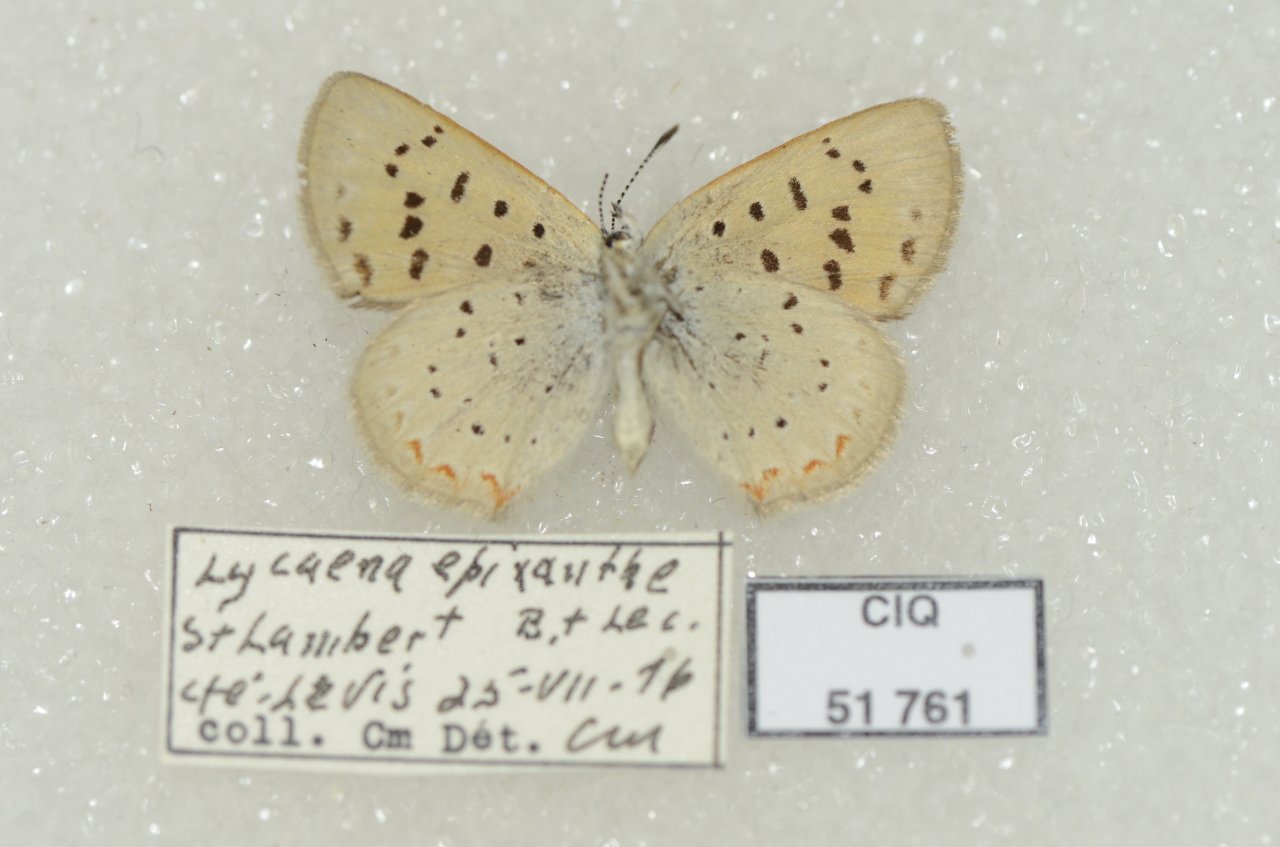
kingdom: Animalia
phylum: Arthropoda
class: Insecta
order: Lepidoptera
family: Sesiidae
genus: Sesia
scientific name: Sesia Lycaena epixanthe
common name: Bog Copper
